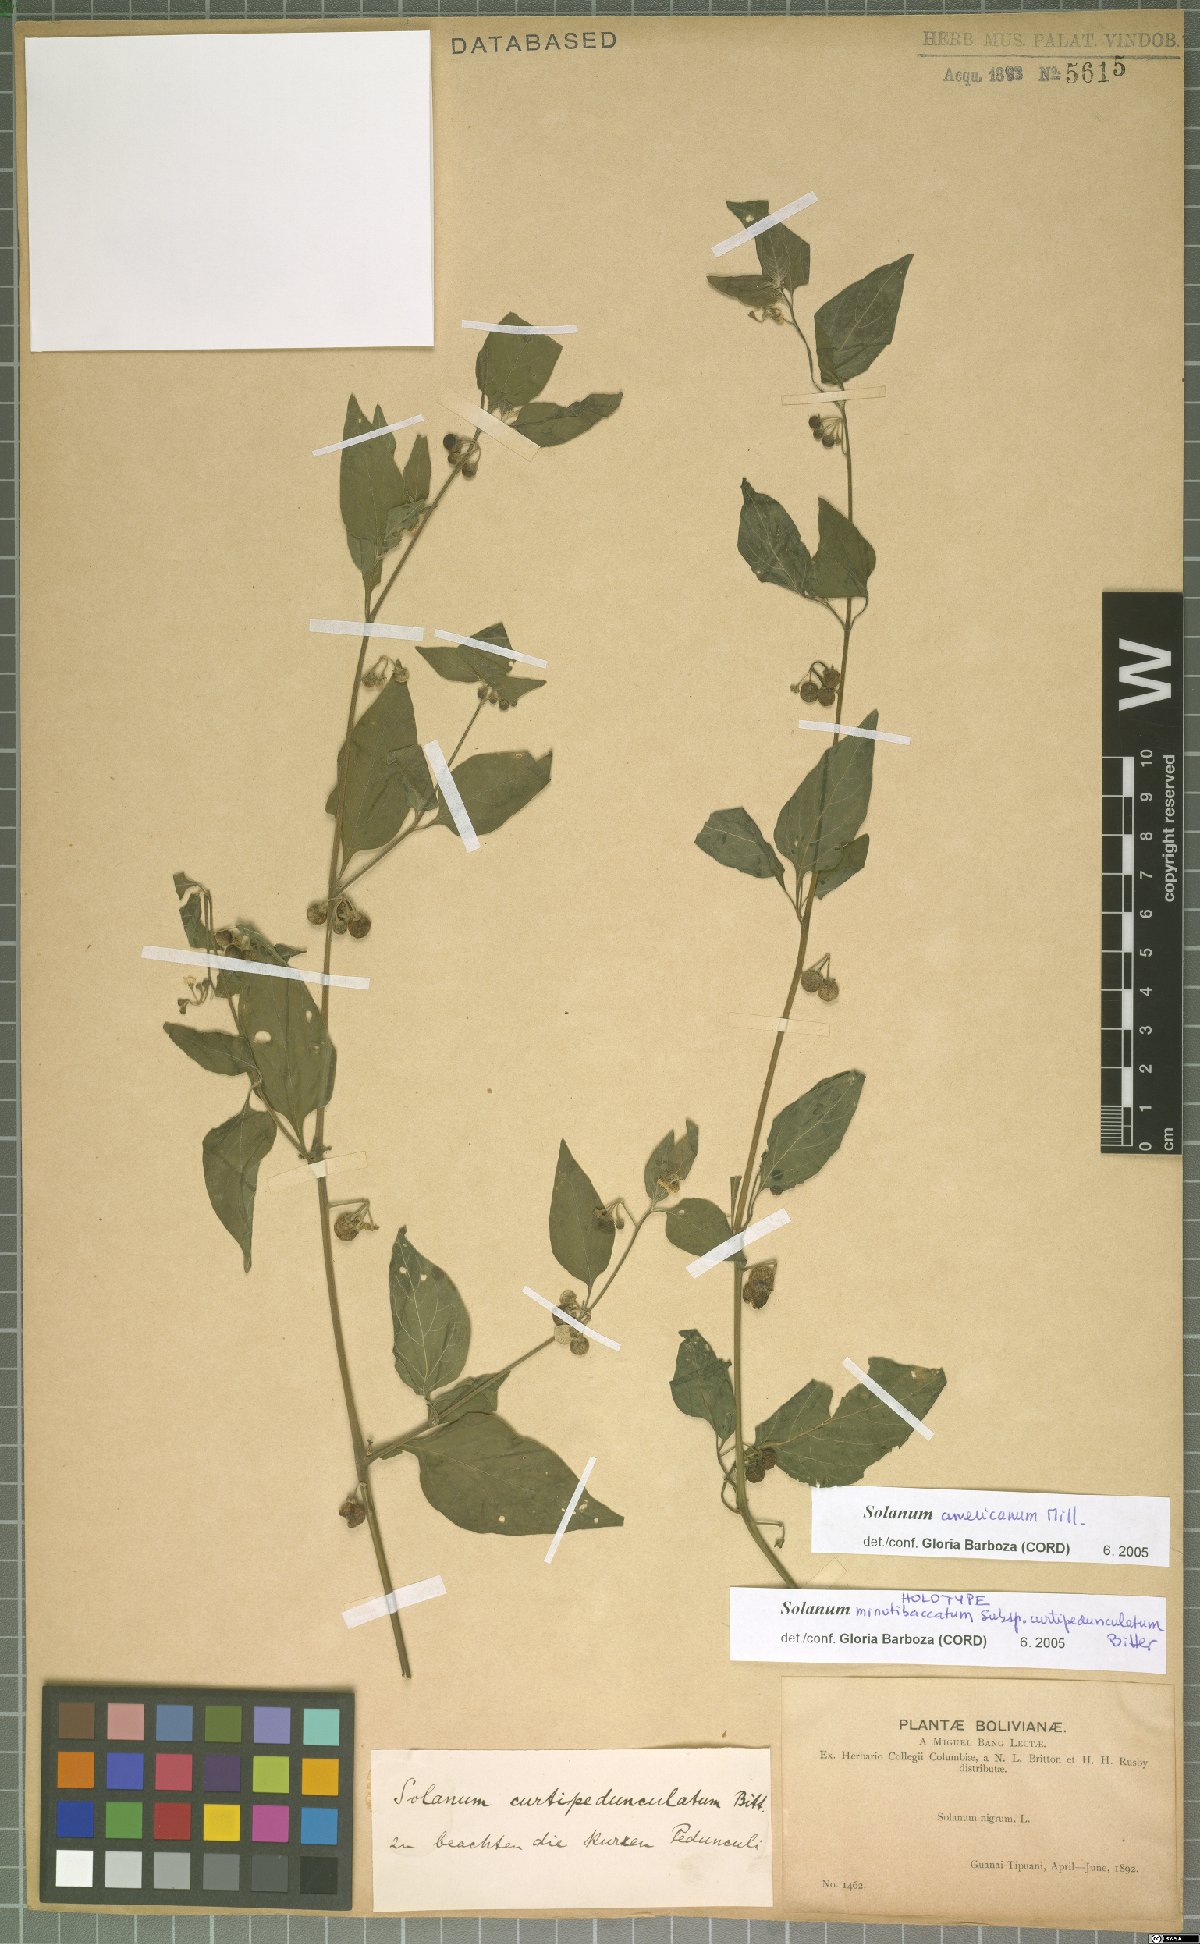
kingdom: Plantae
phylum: Tracheophyta
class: Magnoliopsida
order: Solanales
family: Solanaceae
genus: Solanum
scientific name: Solanum americanum
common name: American black nightshade
